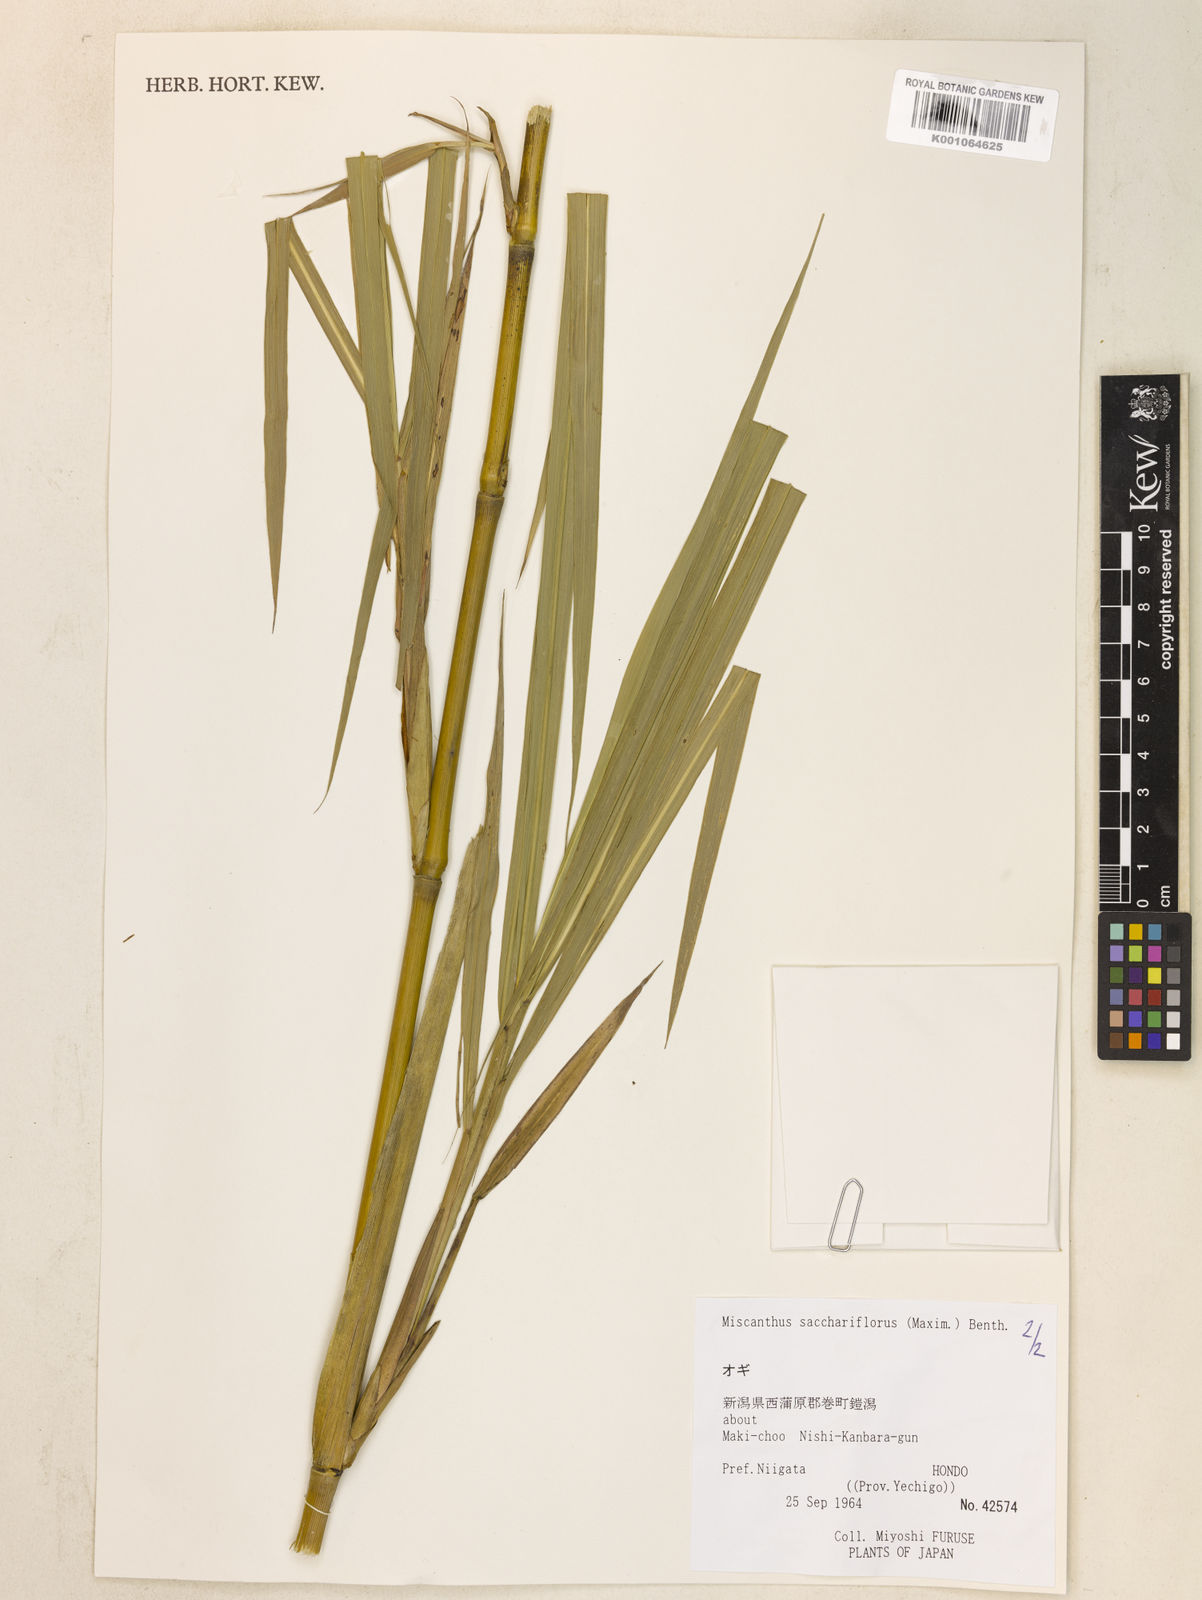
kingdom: Plantae
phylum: Tracheophyta
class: Liliopsida
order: Poales
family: Poaceae
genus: Miscanthus
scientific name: Miscanthus
